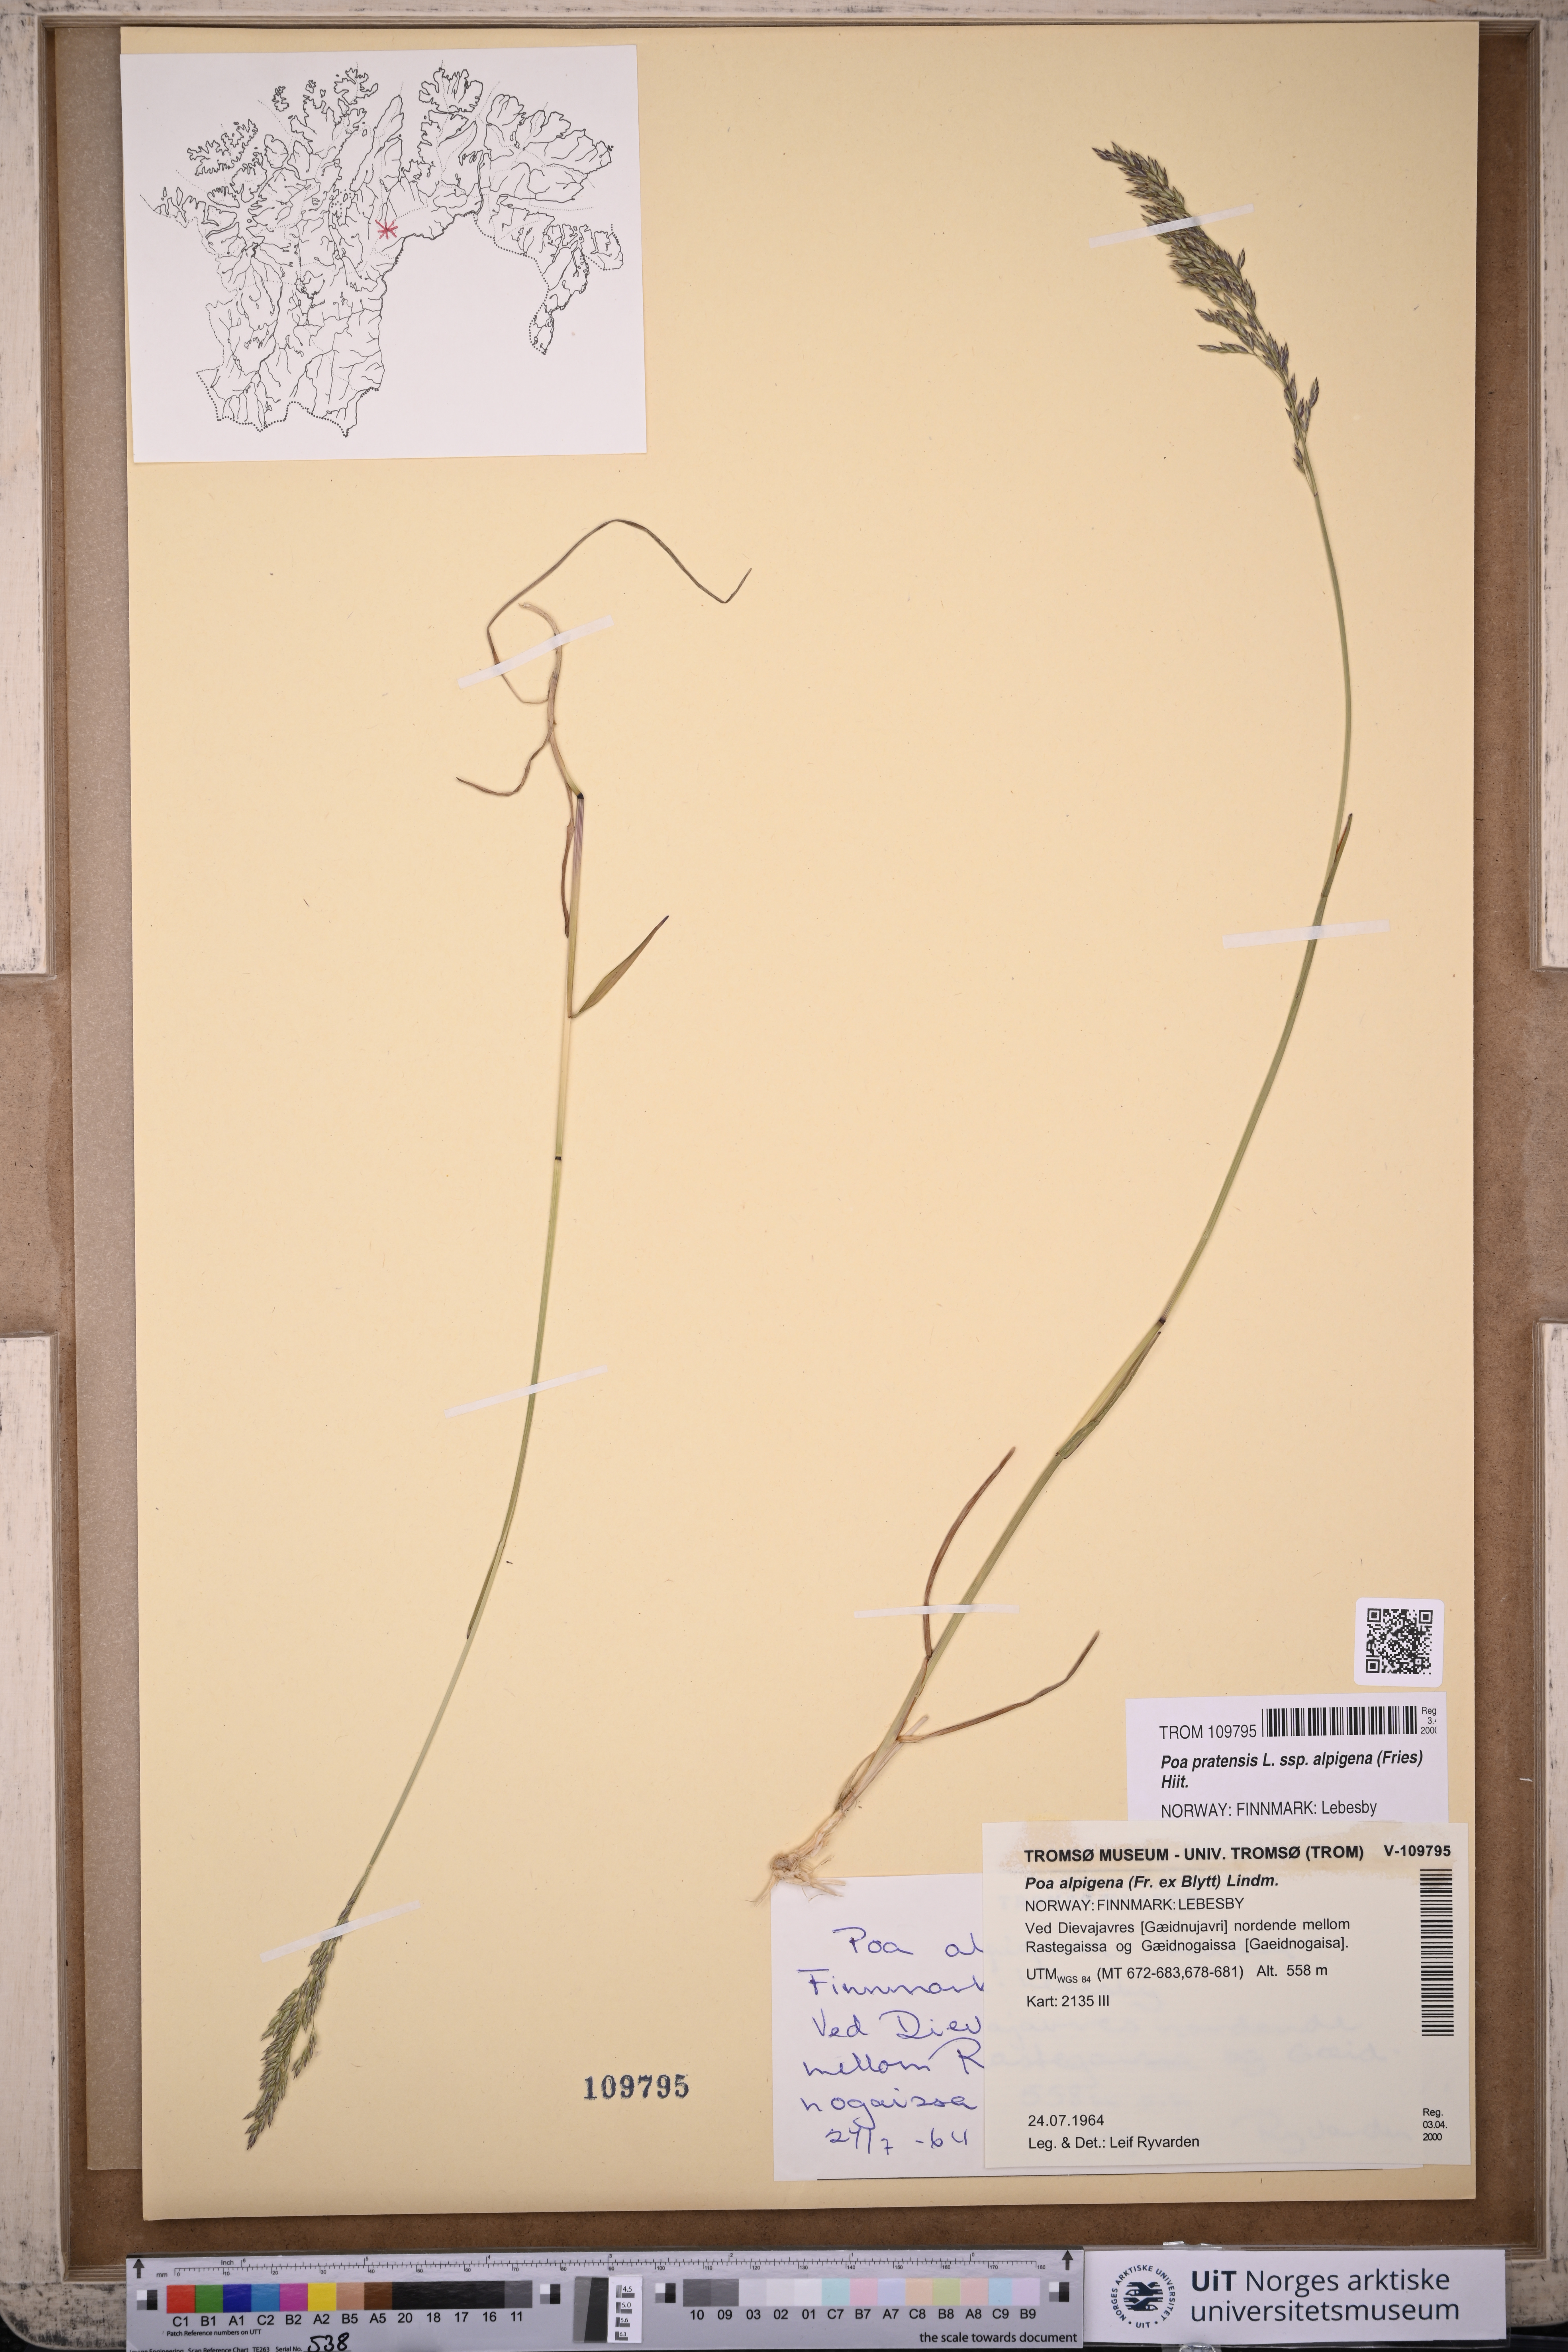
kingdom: Plantae
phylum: Tracheophyta
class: Liliopsida
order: Poales
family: Poaceae
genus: Poa
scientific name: Poa alpigena
